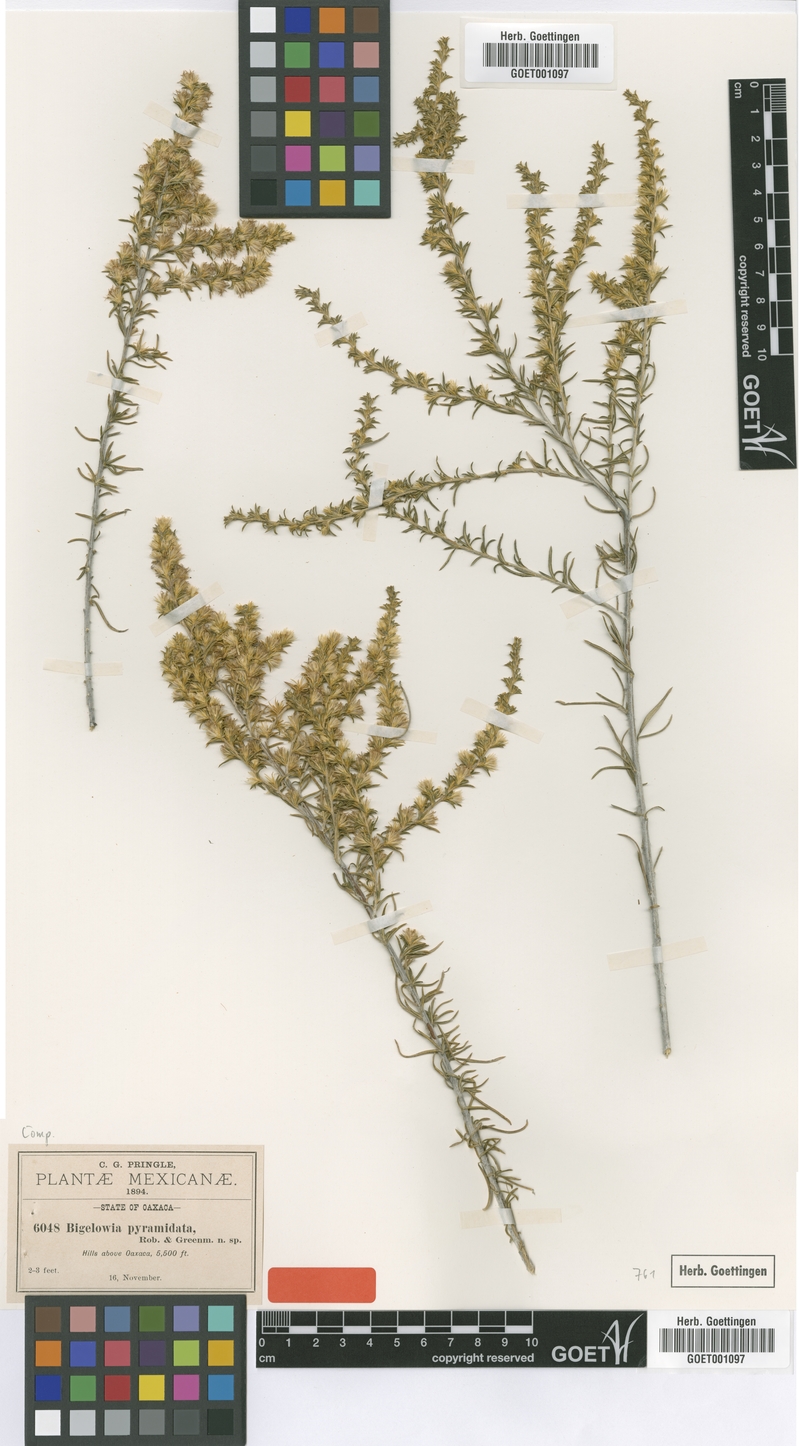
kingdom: Plantae
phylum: Tracheophyta
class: Magnoliopsida
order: Asterales
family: Asteraceae
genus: Aztecaster
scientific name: Aztecaster pyramidatus
